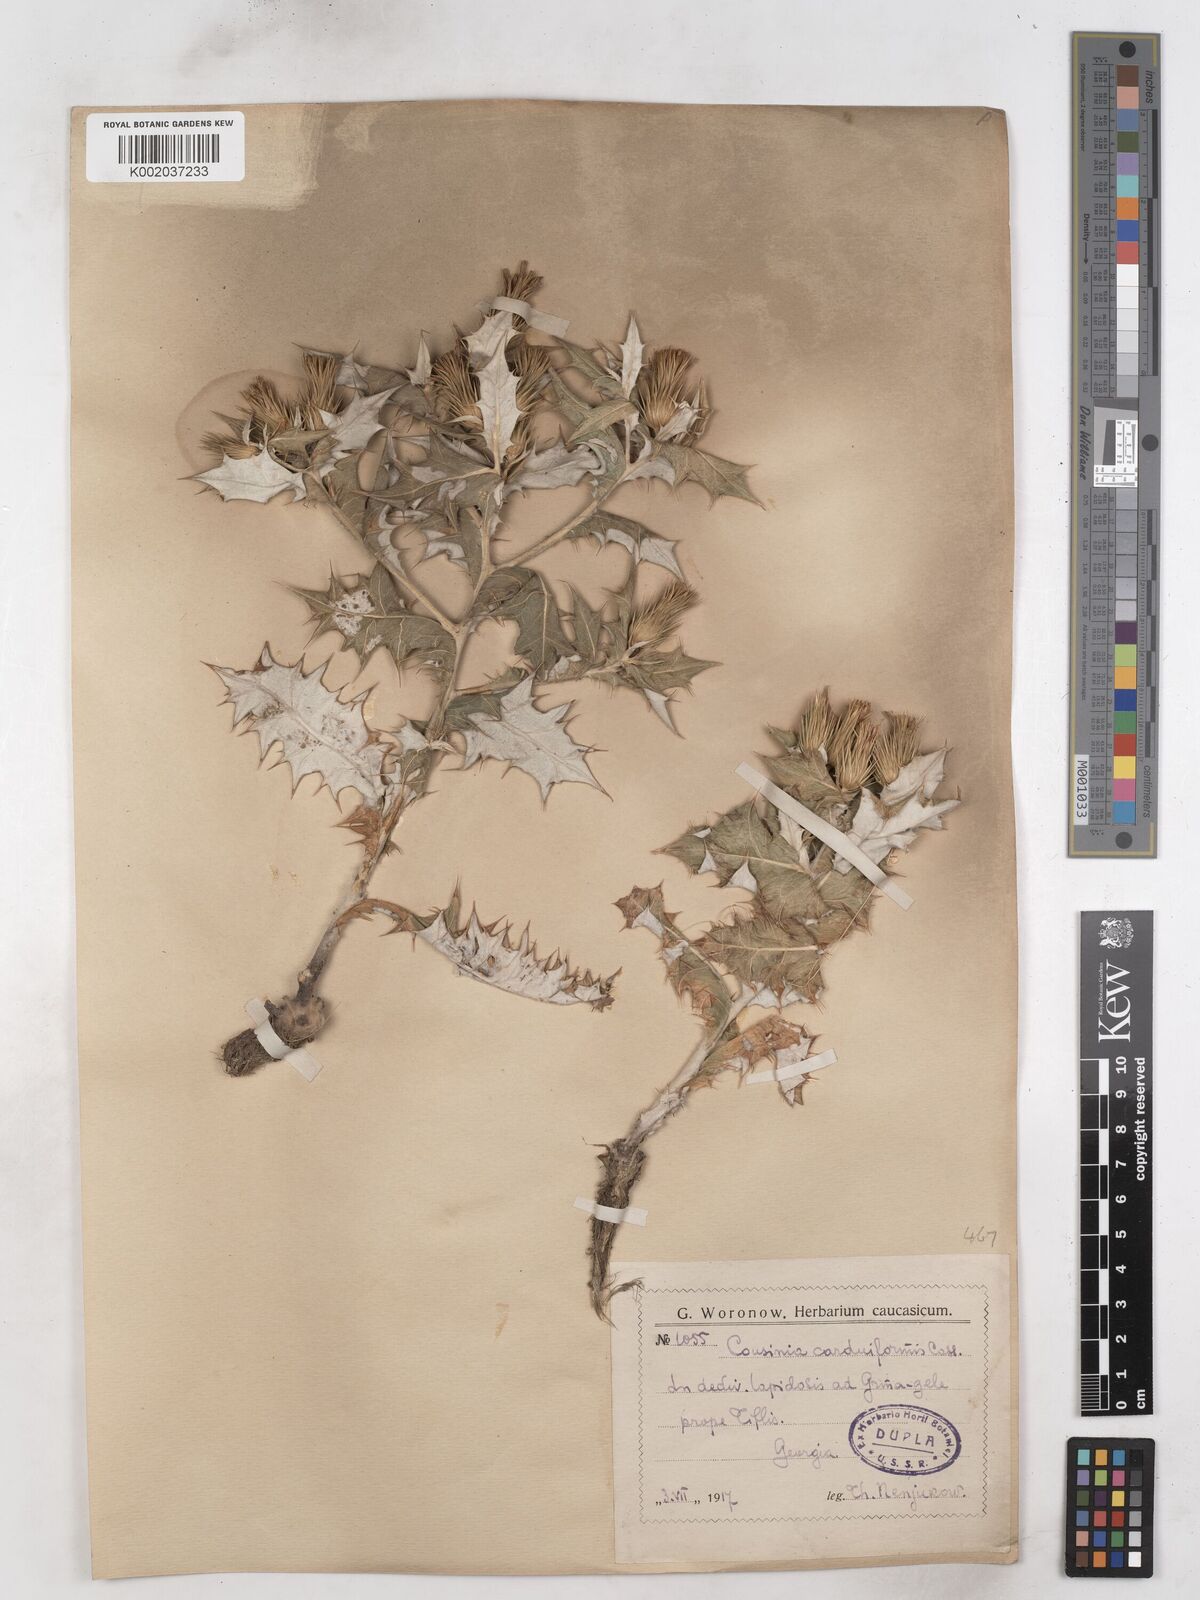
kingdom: Plantae
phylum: Tracheophyta
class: Magnoliopsida
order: Asterales
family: Asteraceae
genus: Cousinia
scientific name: Cousinia
